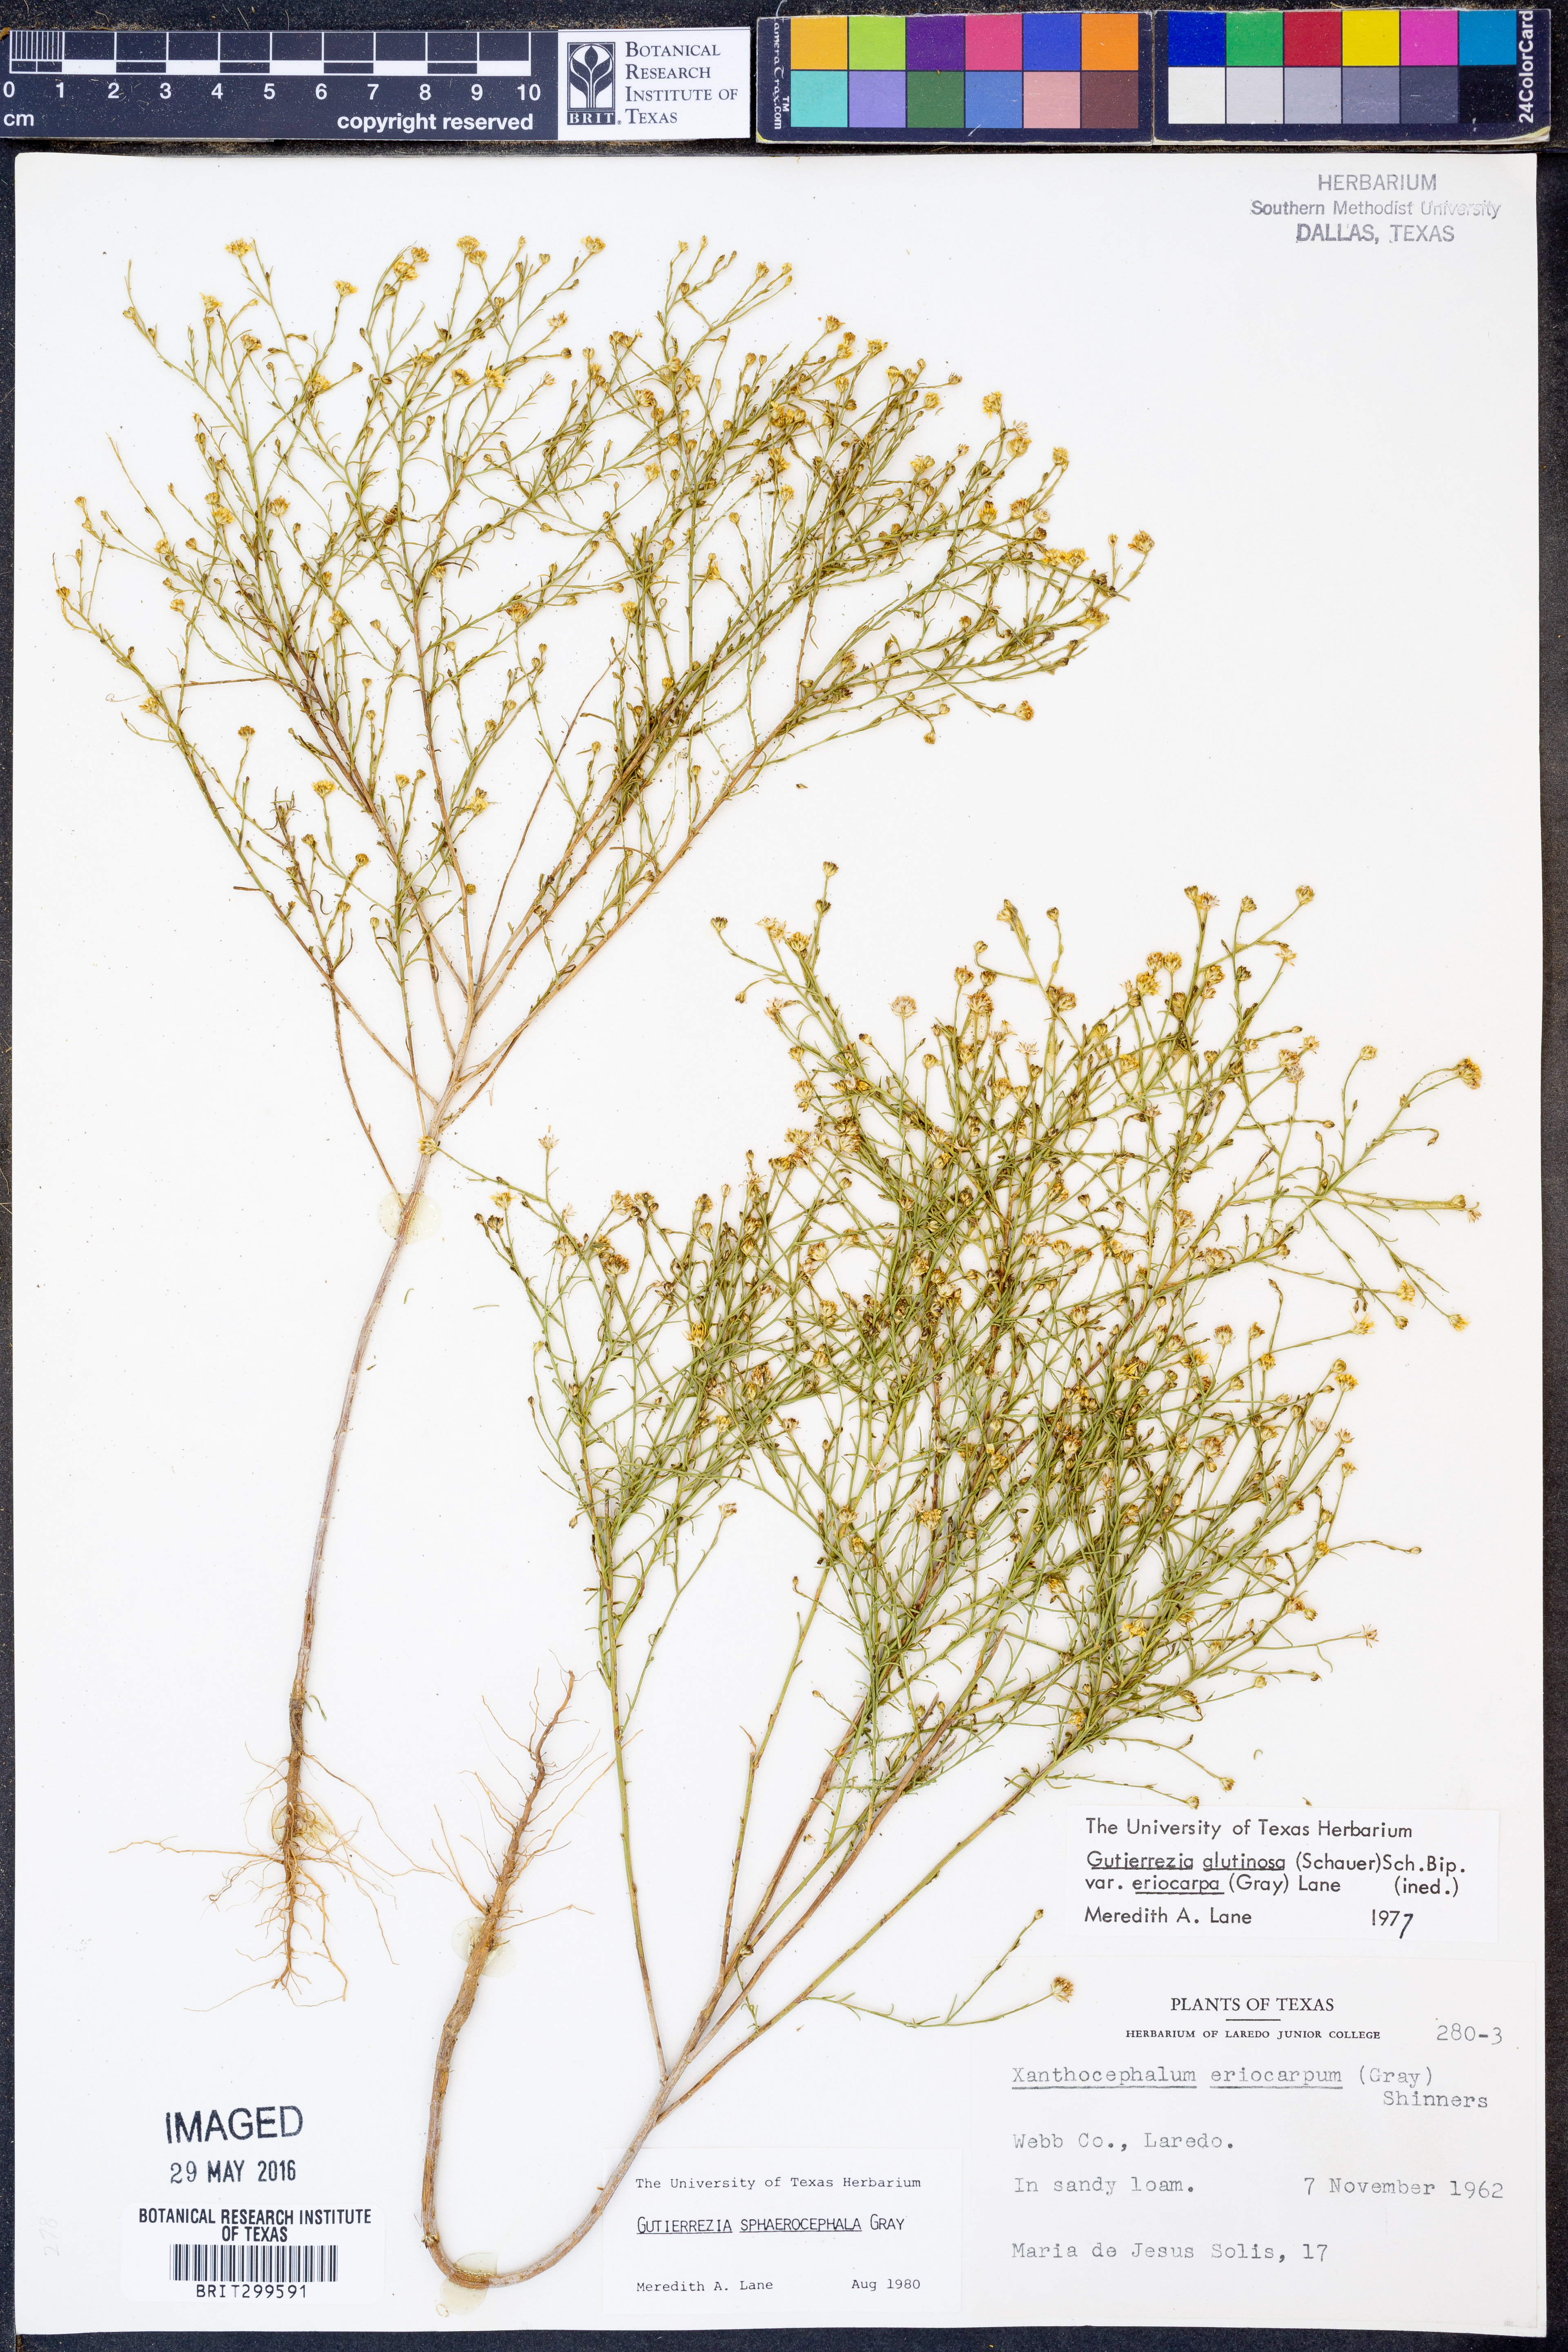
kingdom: Plantae
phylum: Tracheophyta
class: Magnoliopsida
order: Asterales
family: Asteraceae
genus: Gutierrezia
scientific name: Gutierrezia sphaerocephala
